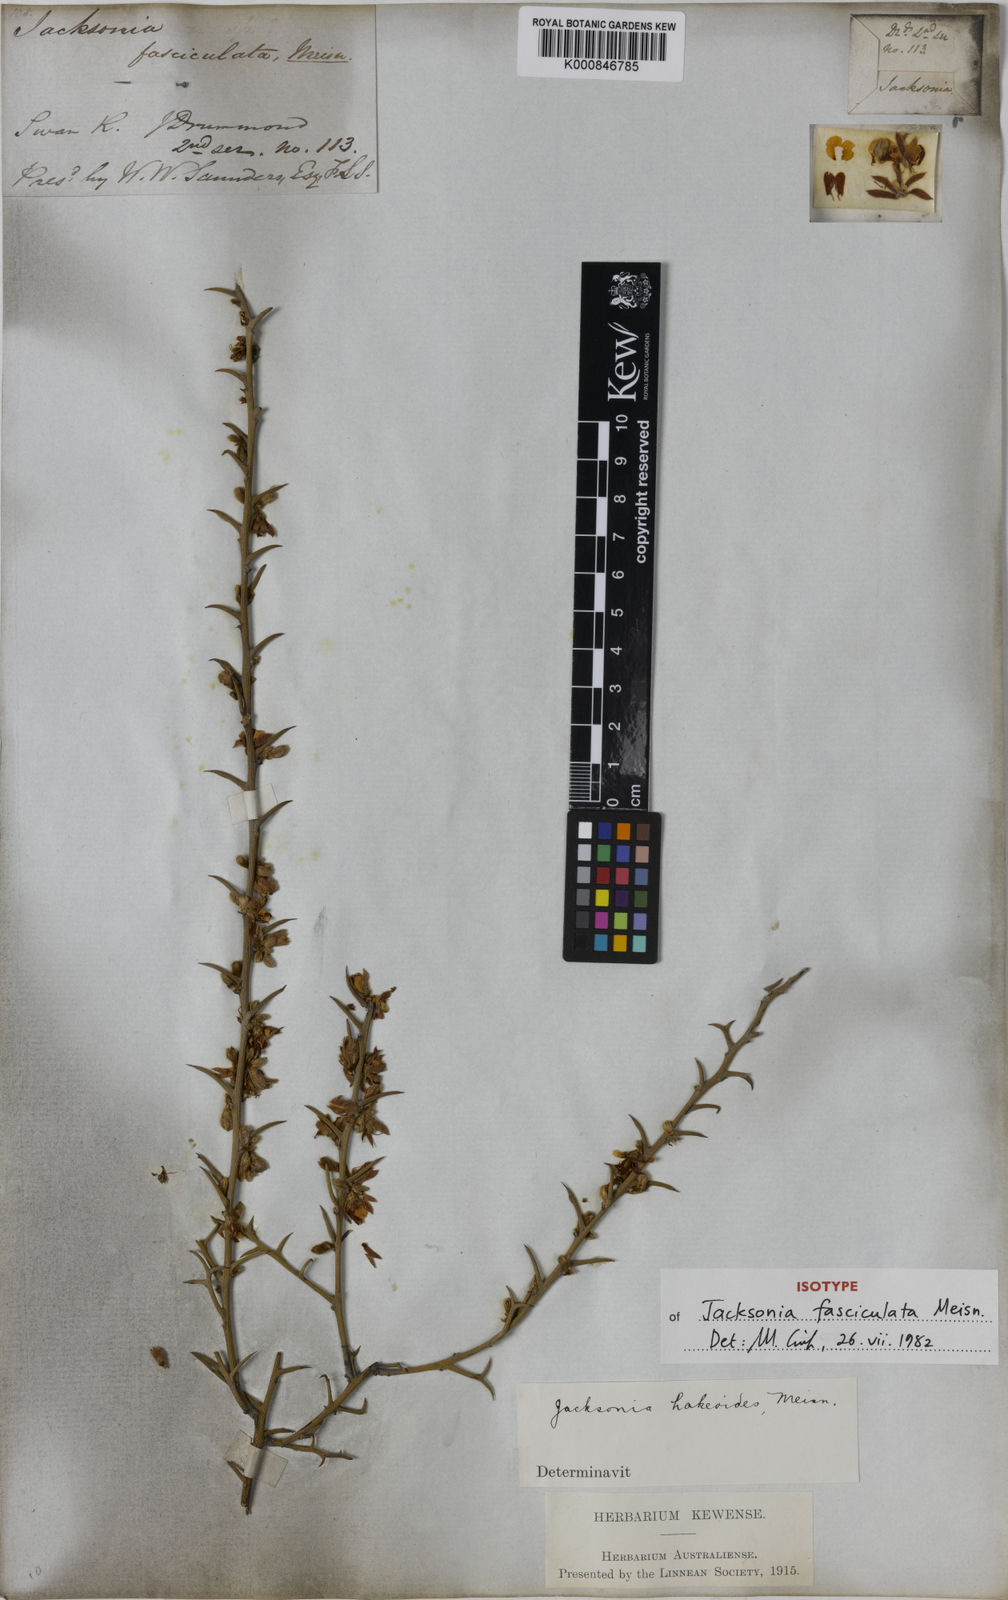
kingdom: Plantae
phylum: Tracheophyta
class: Magnoliopsida
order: Fabales
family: Fabaceae
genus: Jacksonia
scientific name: Jacksonia fasciculata
